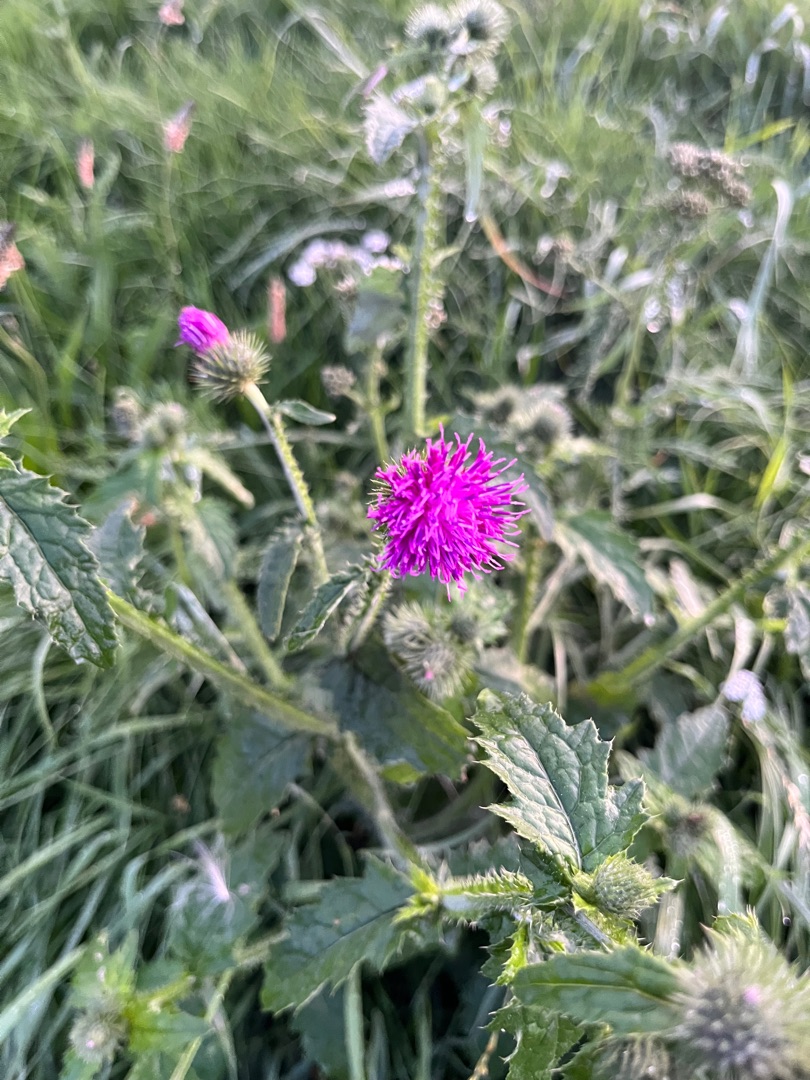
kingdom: Plantae
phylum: Tracheophyta
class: Magnoliopsida
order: Asterales
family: Asteraceae
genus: Carduus
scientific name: Carduus crispus
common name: Kruset tidsel
